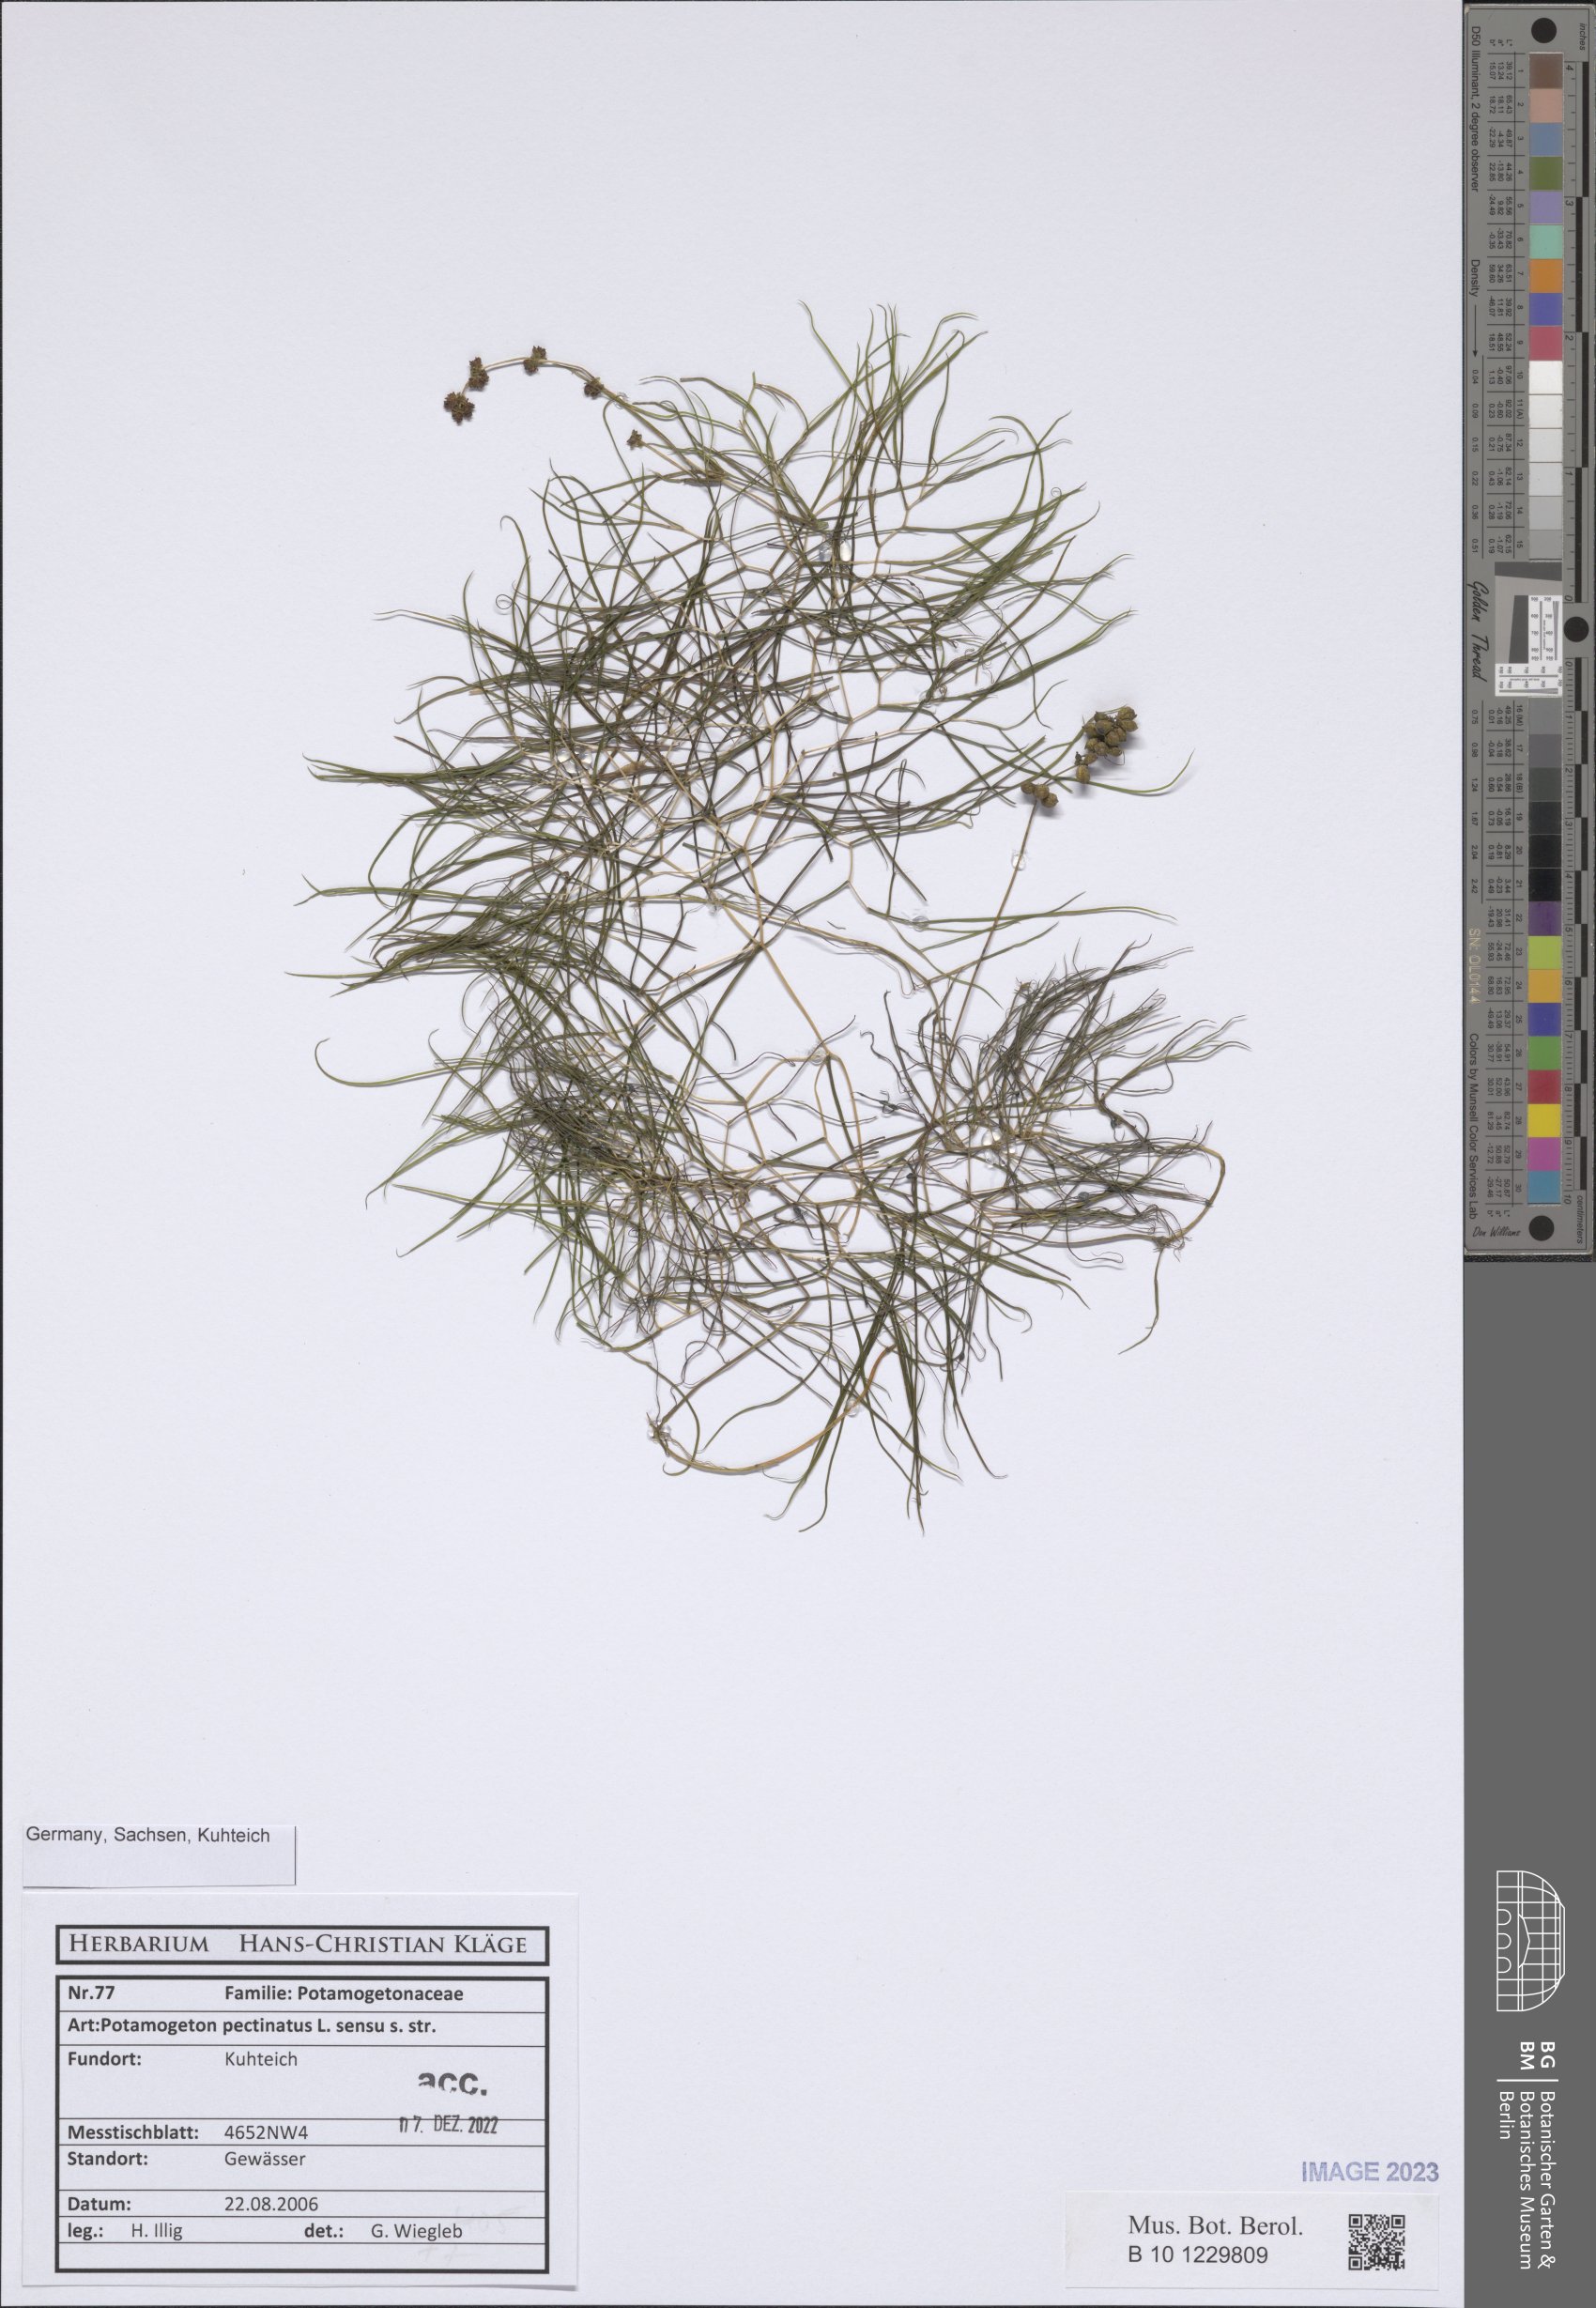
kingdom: Plantae
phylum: Tracheophyta
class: Liliopsida
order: Alismatales
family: Potamogetonaceae
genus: Stuckenia
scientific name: Stuckenia pectinata
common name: Sago pondweed
